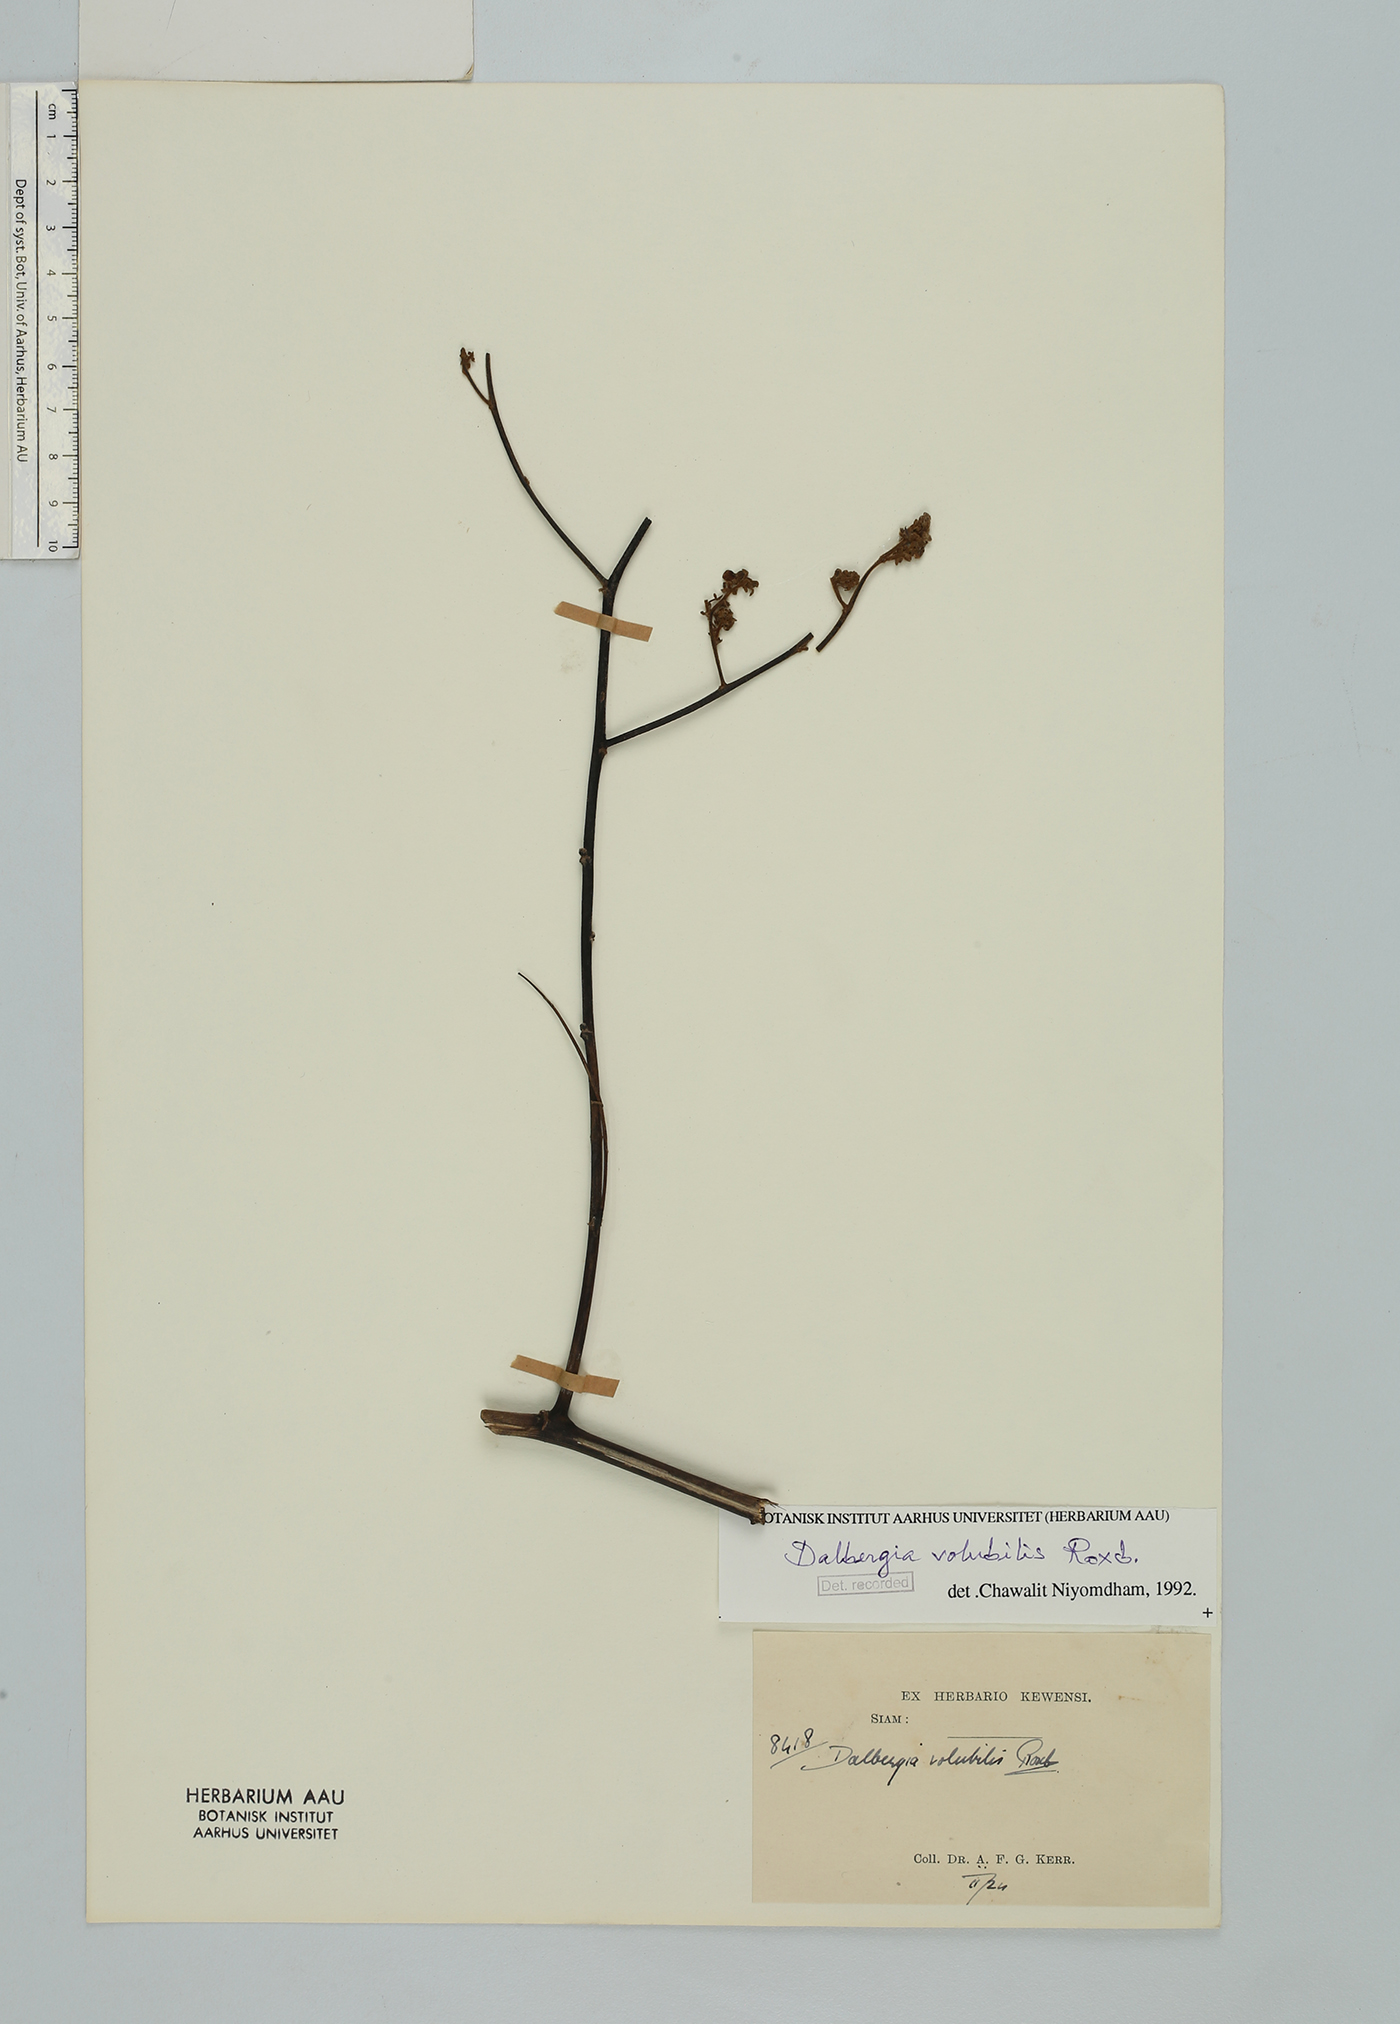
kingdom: Plantae
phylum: Tracheophyta
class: Magnoliopsida
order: Fabales
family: Fabaceae
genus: Dalbergia
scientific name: Dalbergia volubilis
